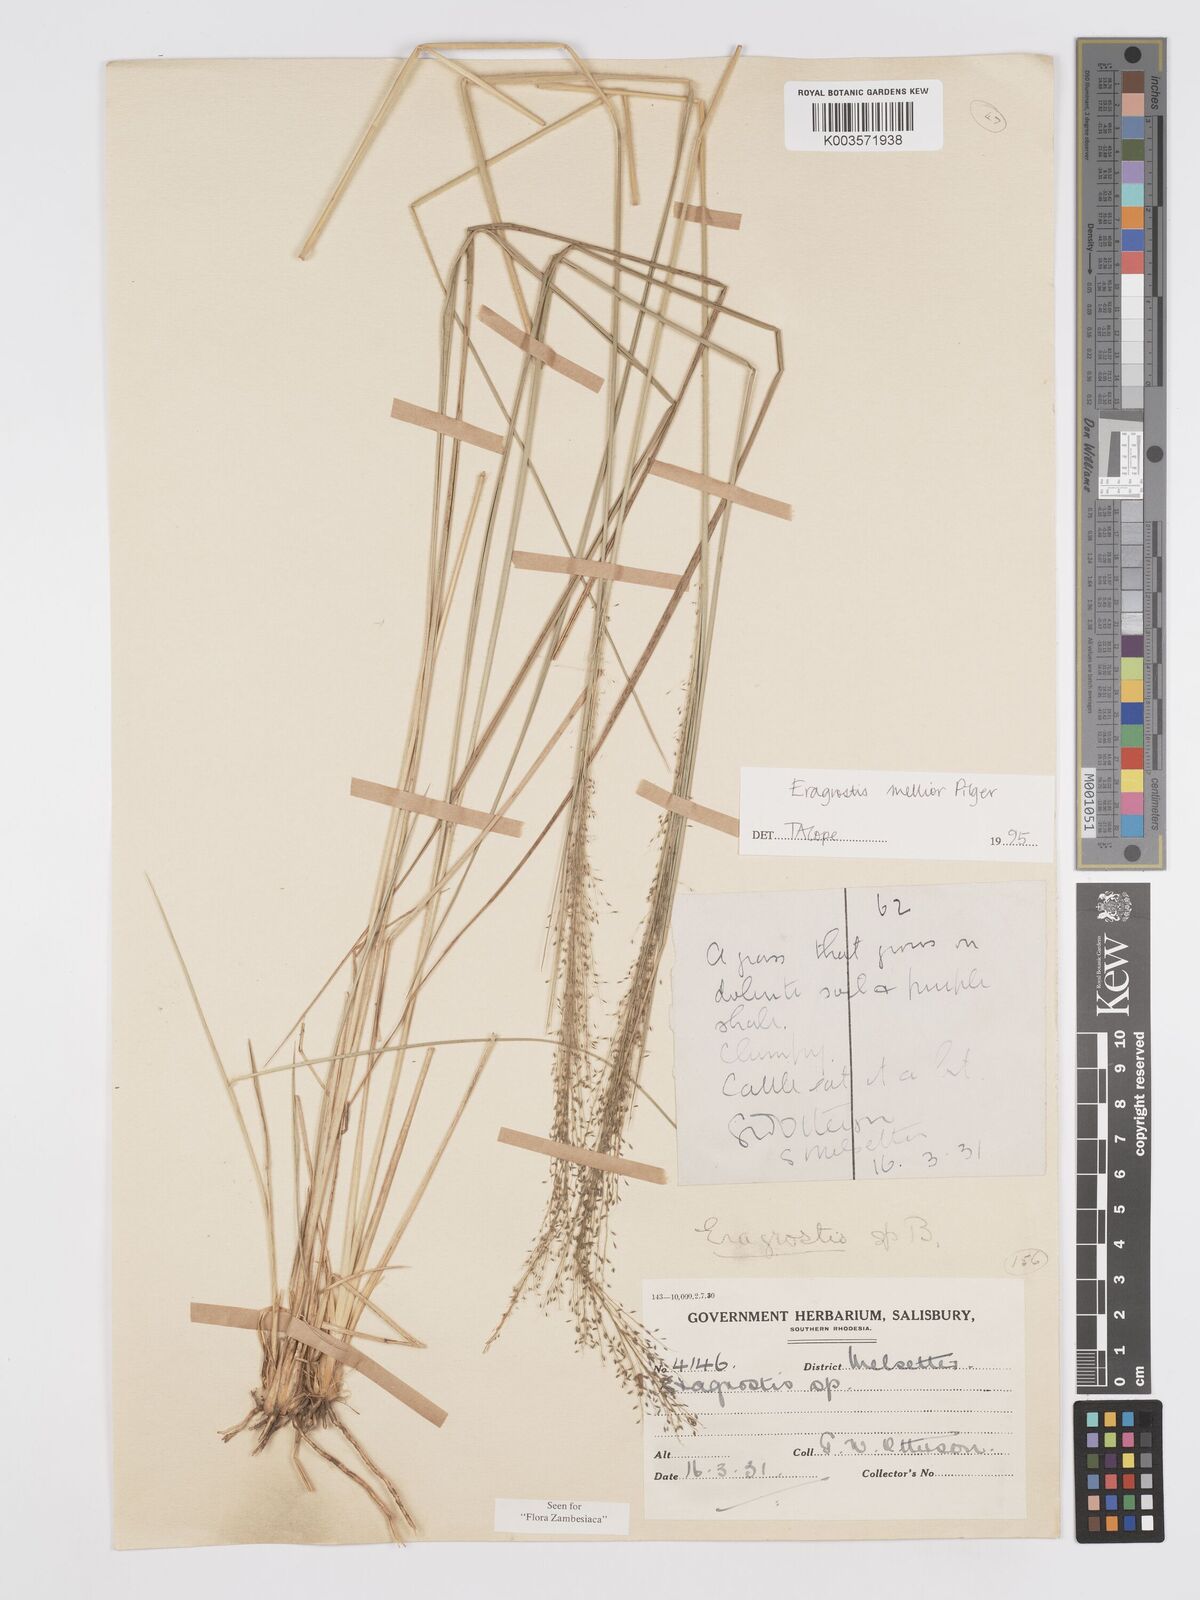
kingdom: Plantae
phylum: Tracheophyta
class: Liliopsida
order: Poales
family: Poaceae
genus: Eragrostis
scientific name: Eragrostis mollior
